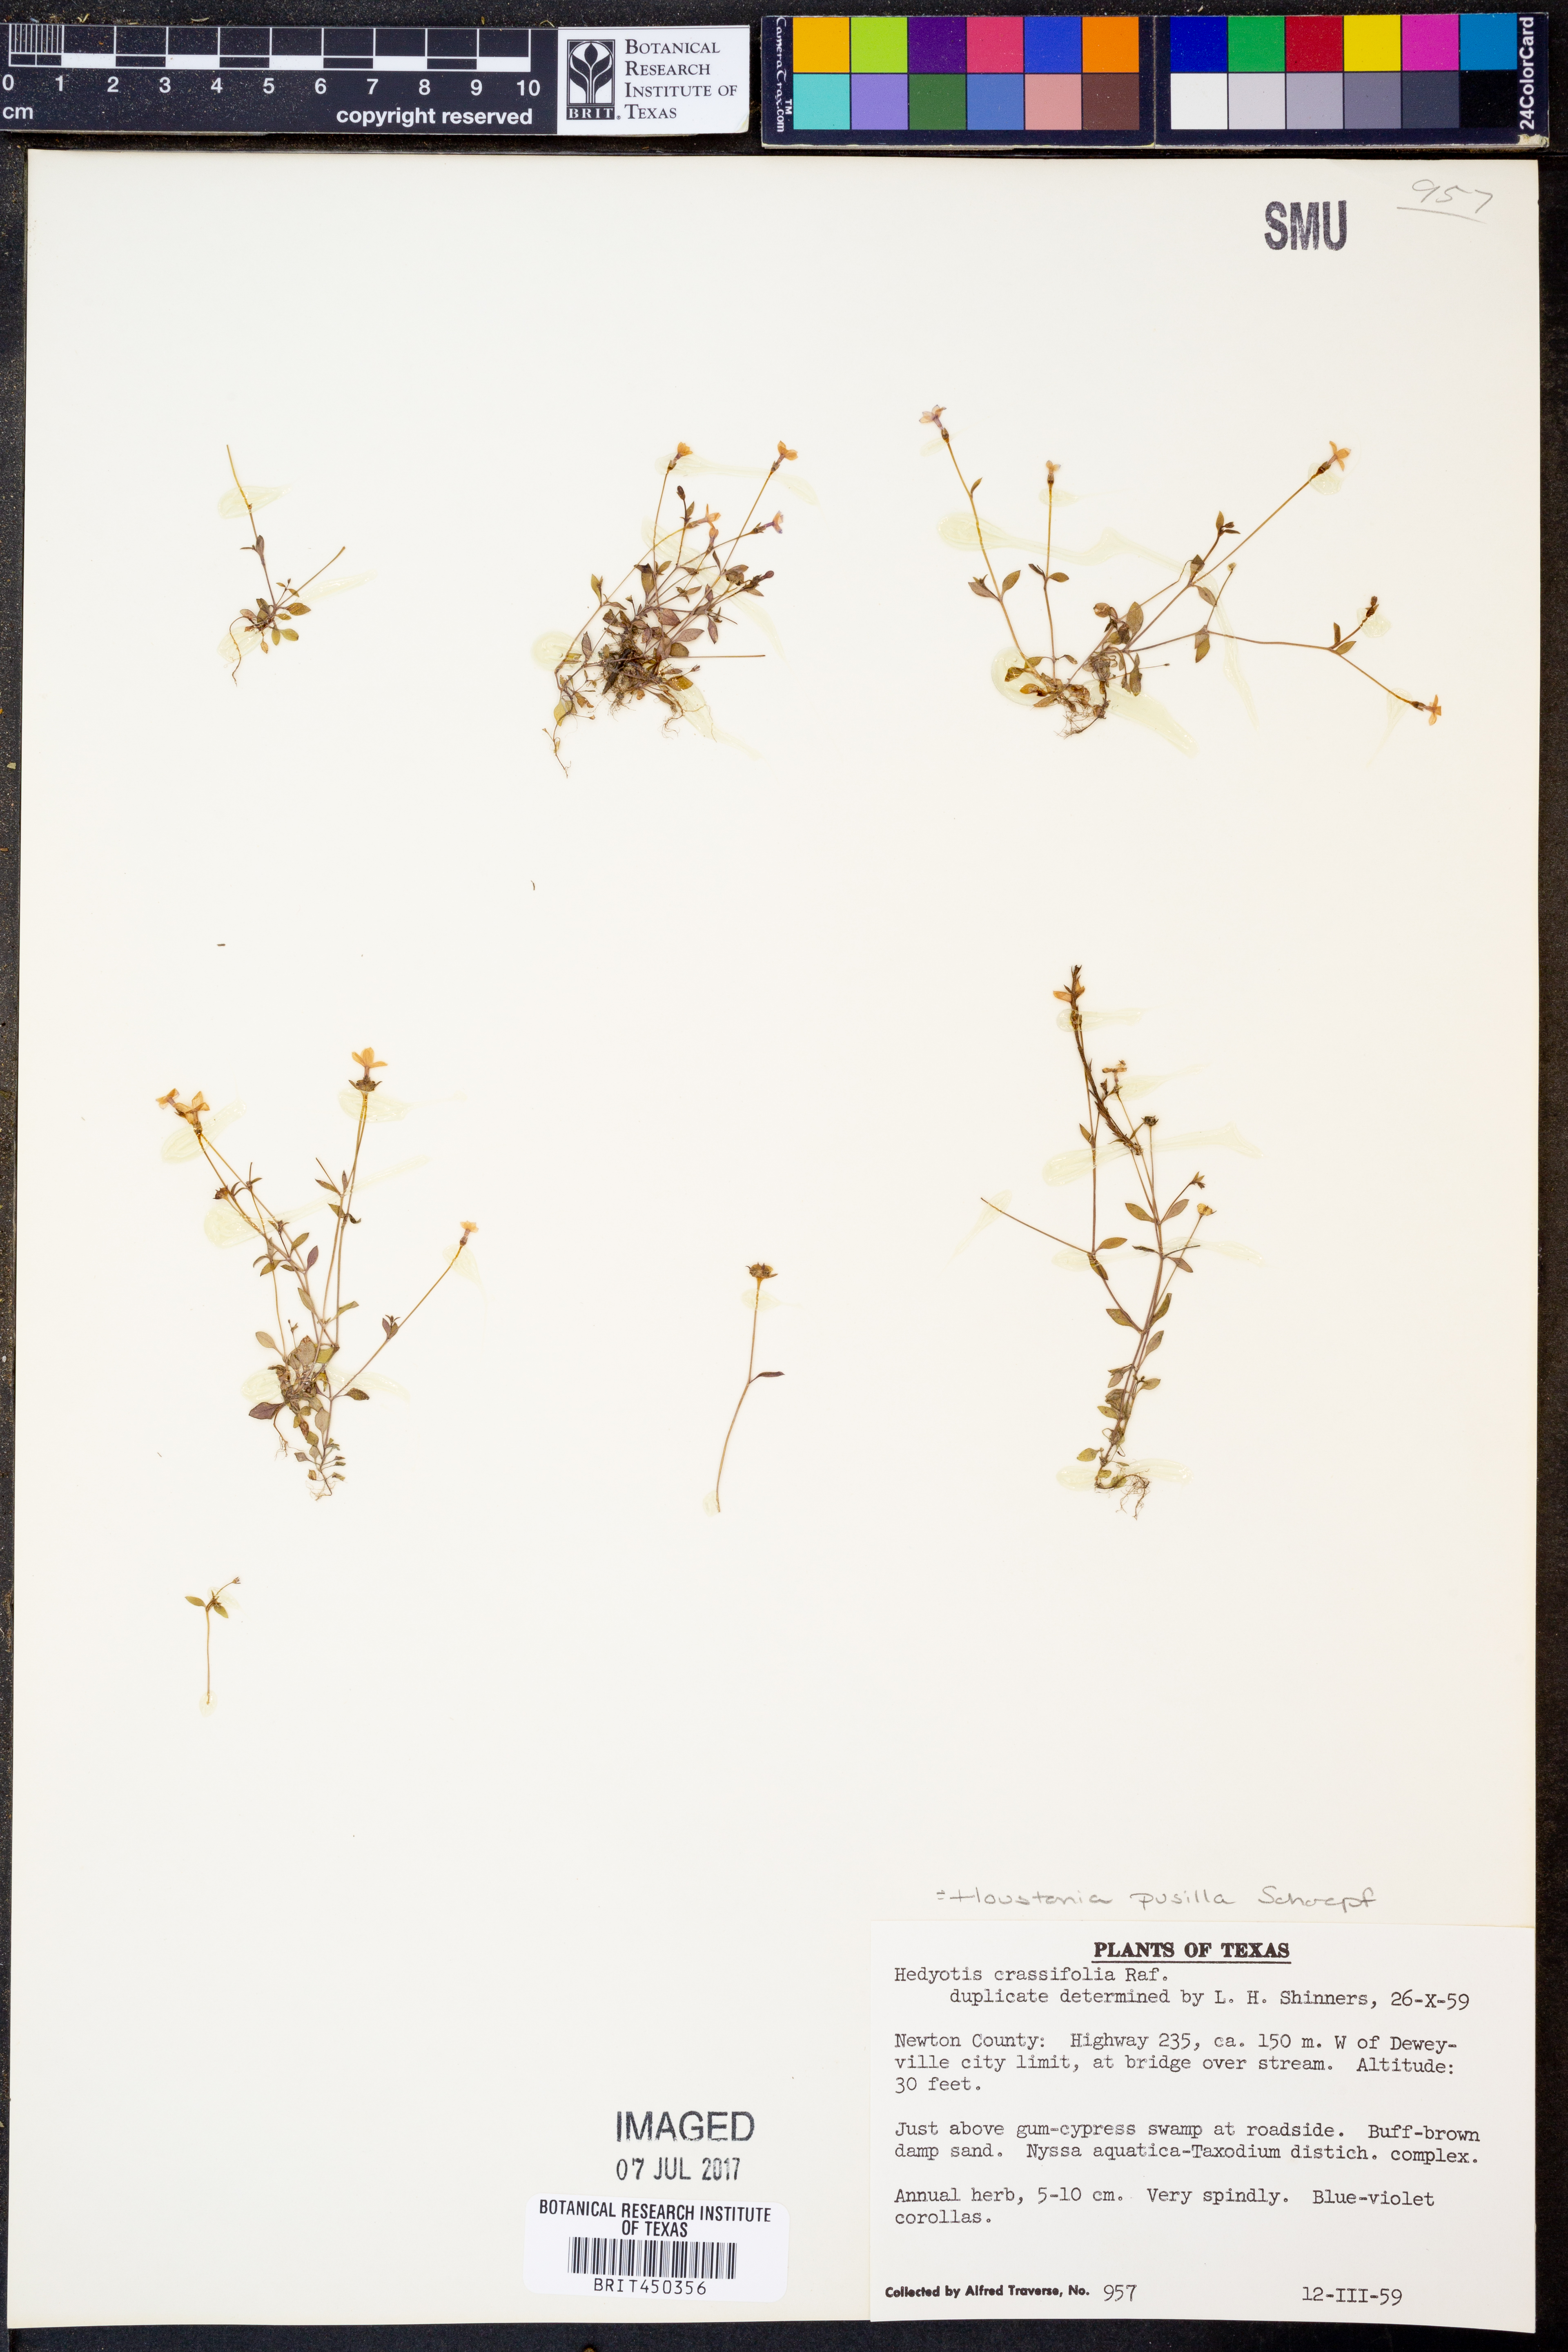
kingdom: Plantae
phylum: Tracheophyta
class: Magnoliopsida
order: Gentianales
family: Rubiaceae
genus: Houstonia
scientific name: Houstonia pusilla
